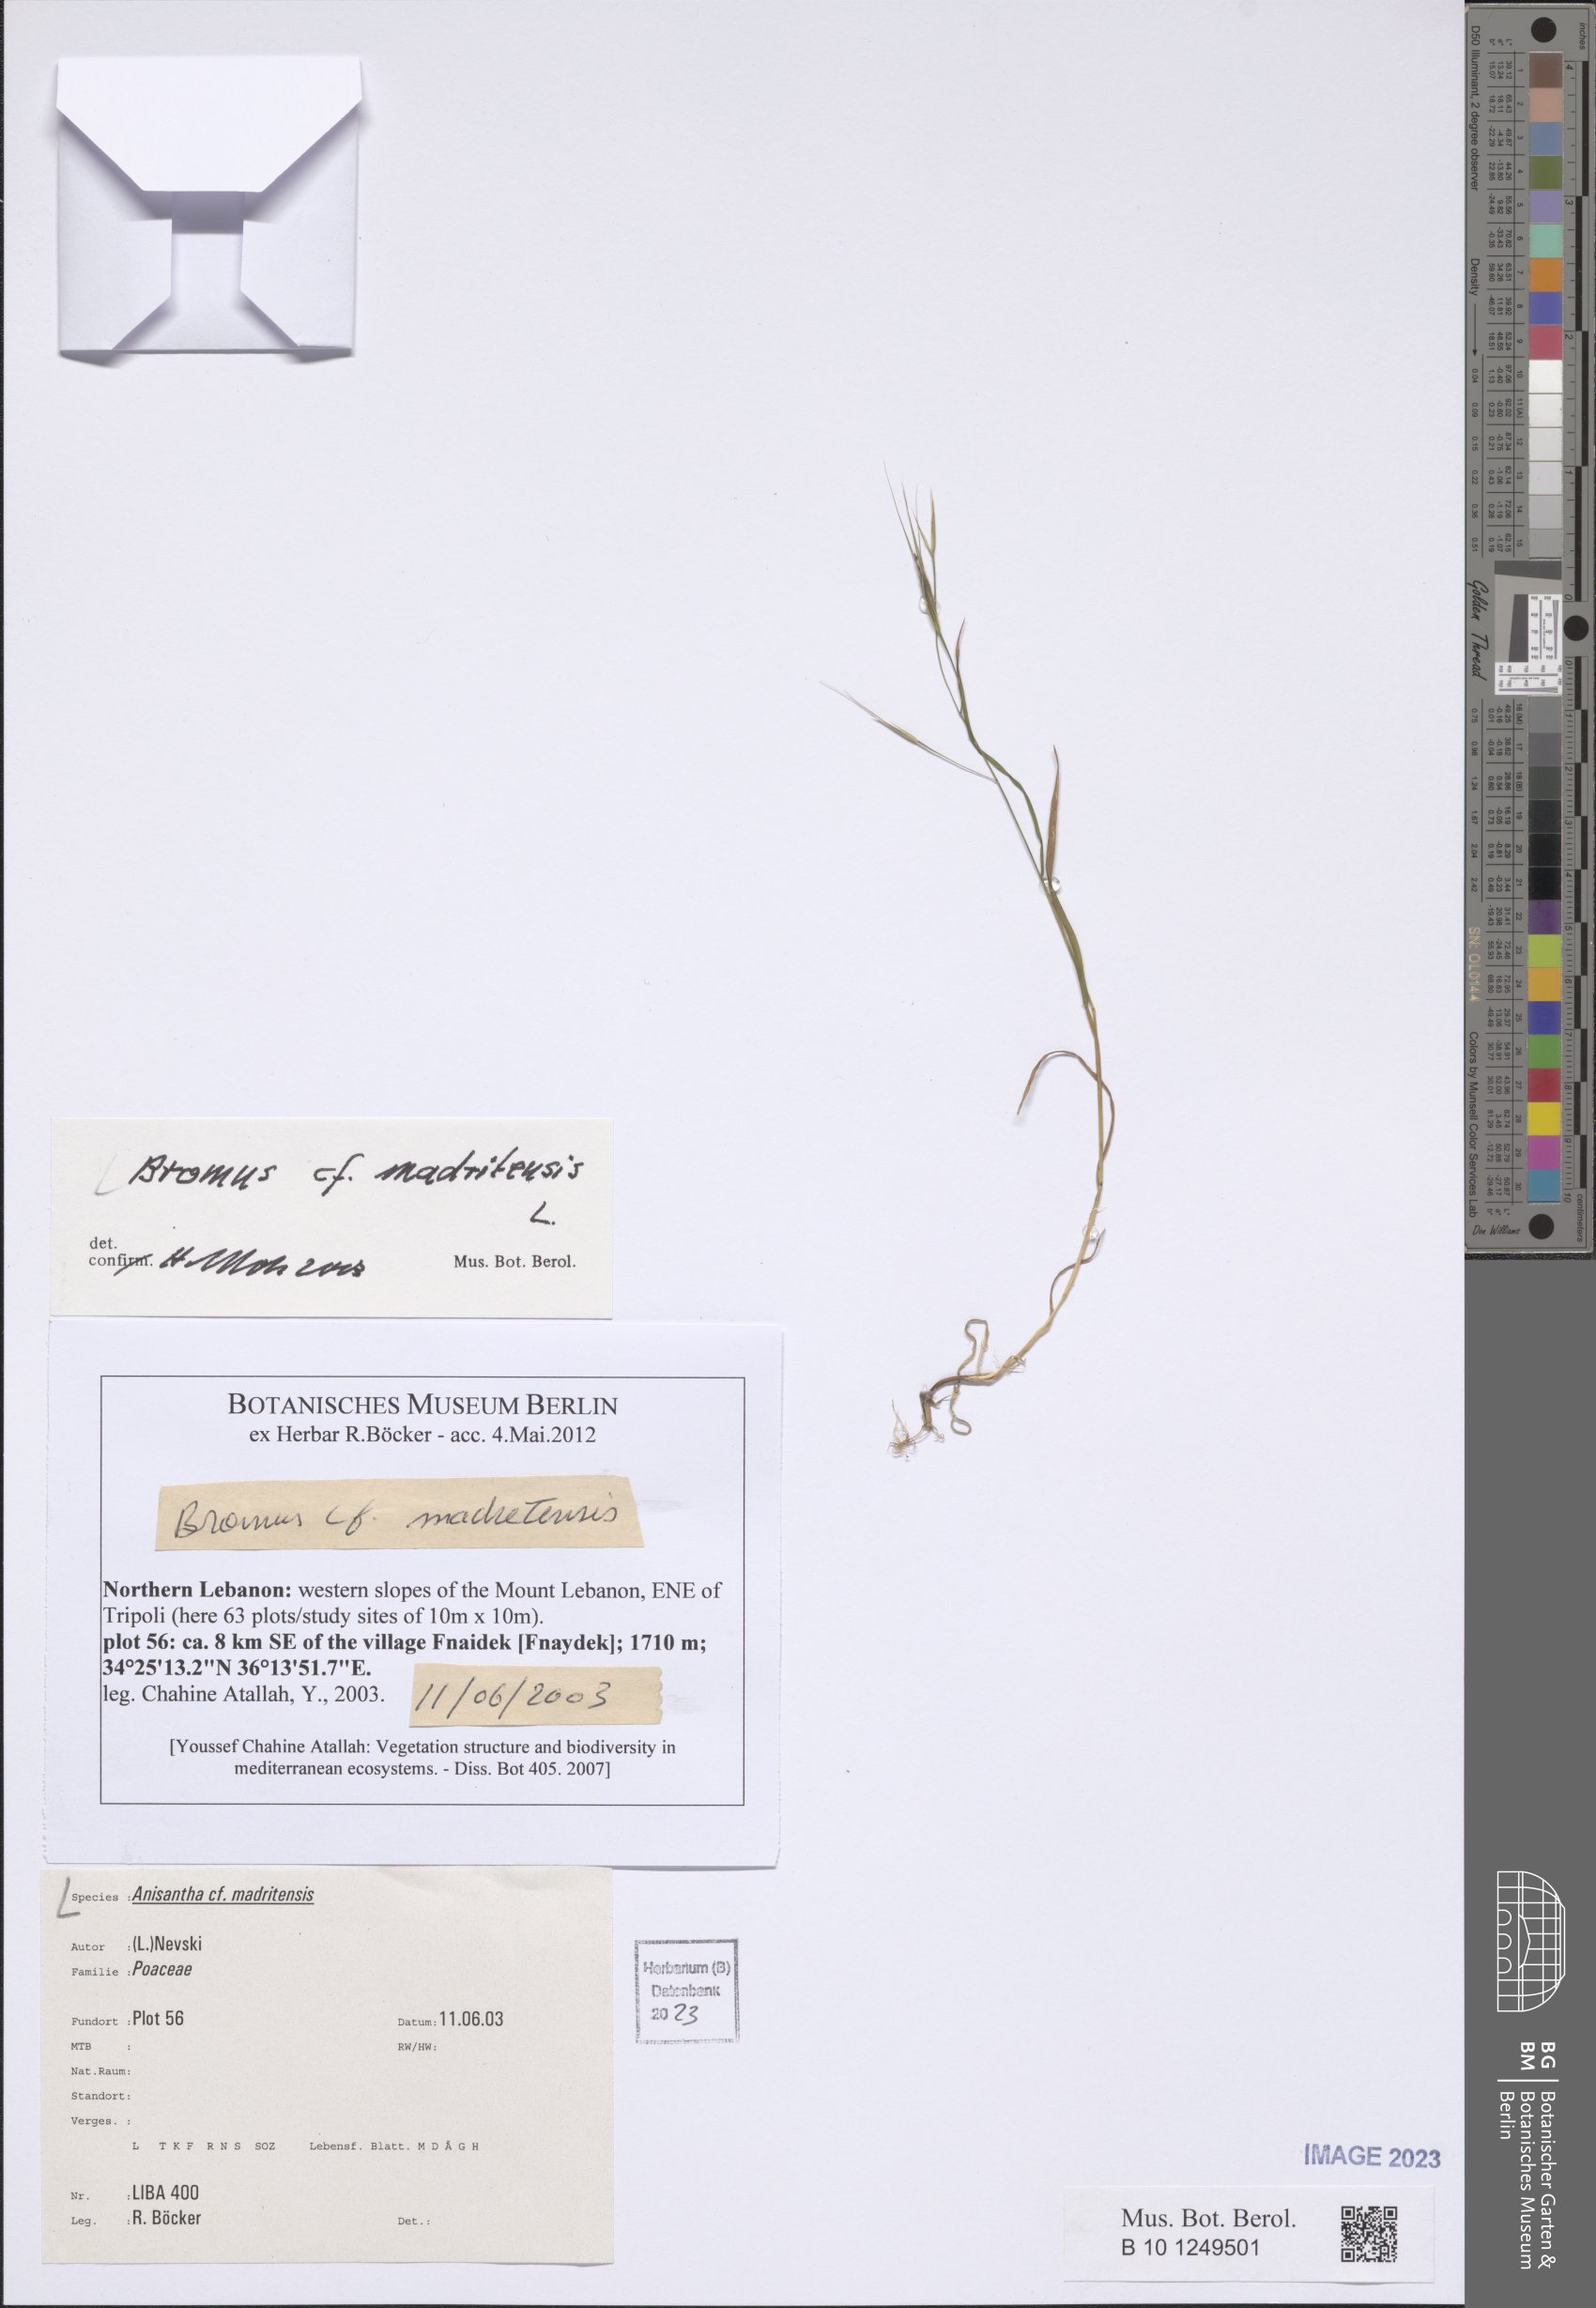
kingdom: Plantae
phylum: Tracheophyta
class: Liliopsida
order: Poales
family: Poaceae
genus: Bromus
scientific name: Bromus madritensis
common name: Compact brome
